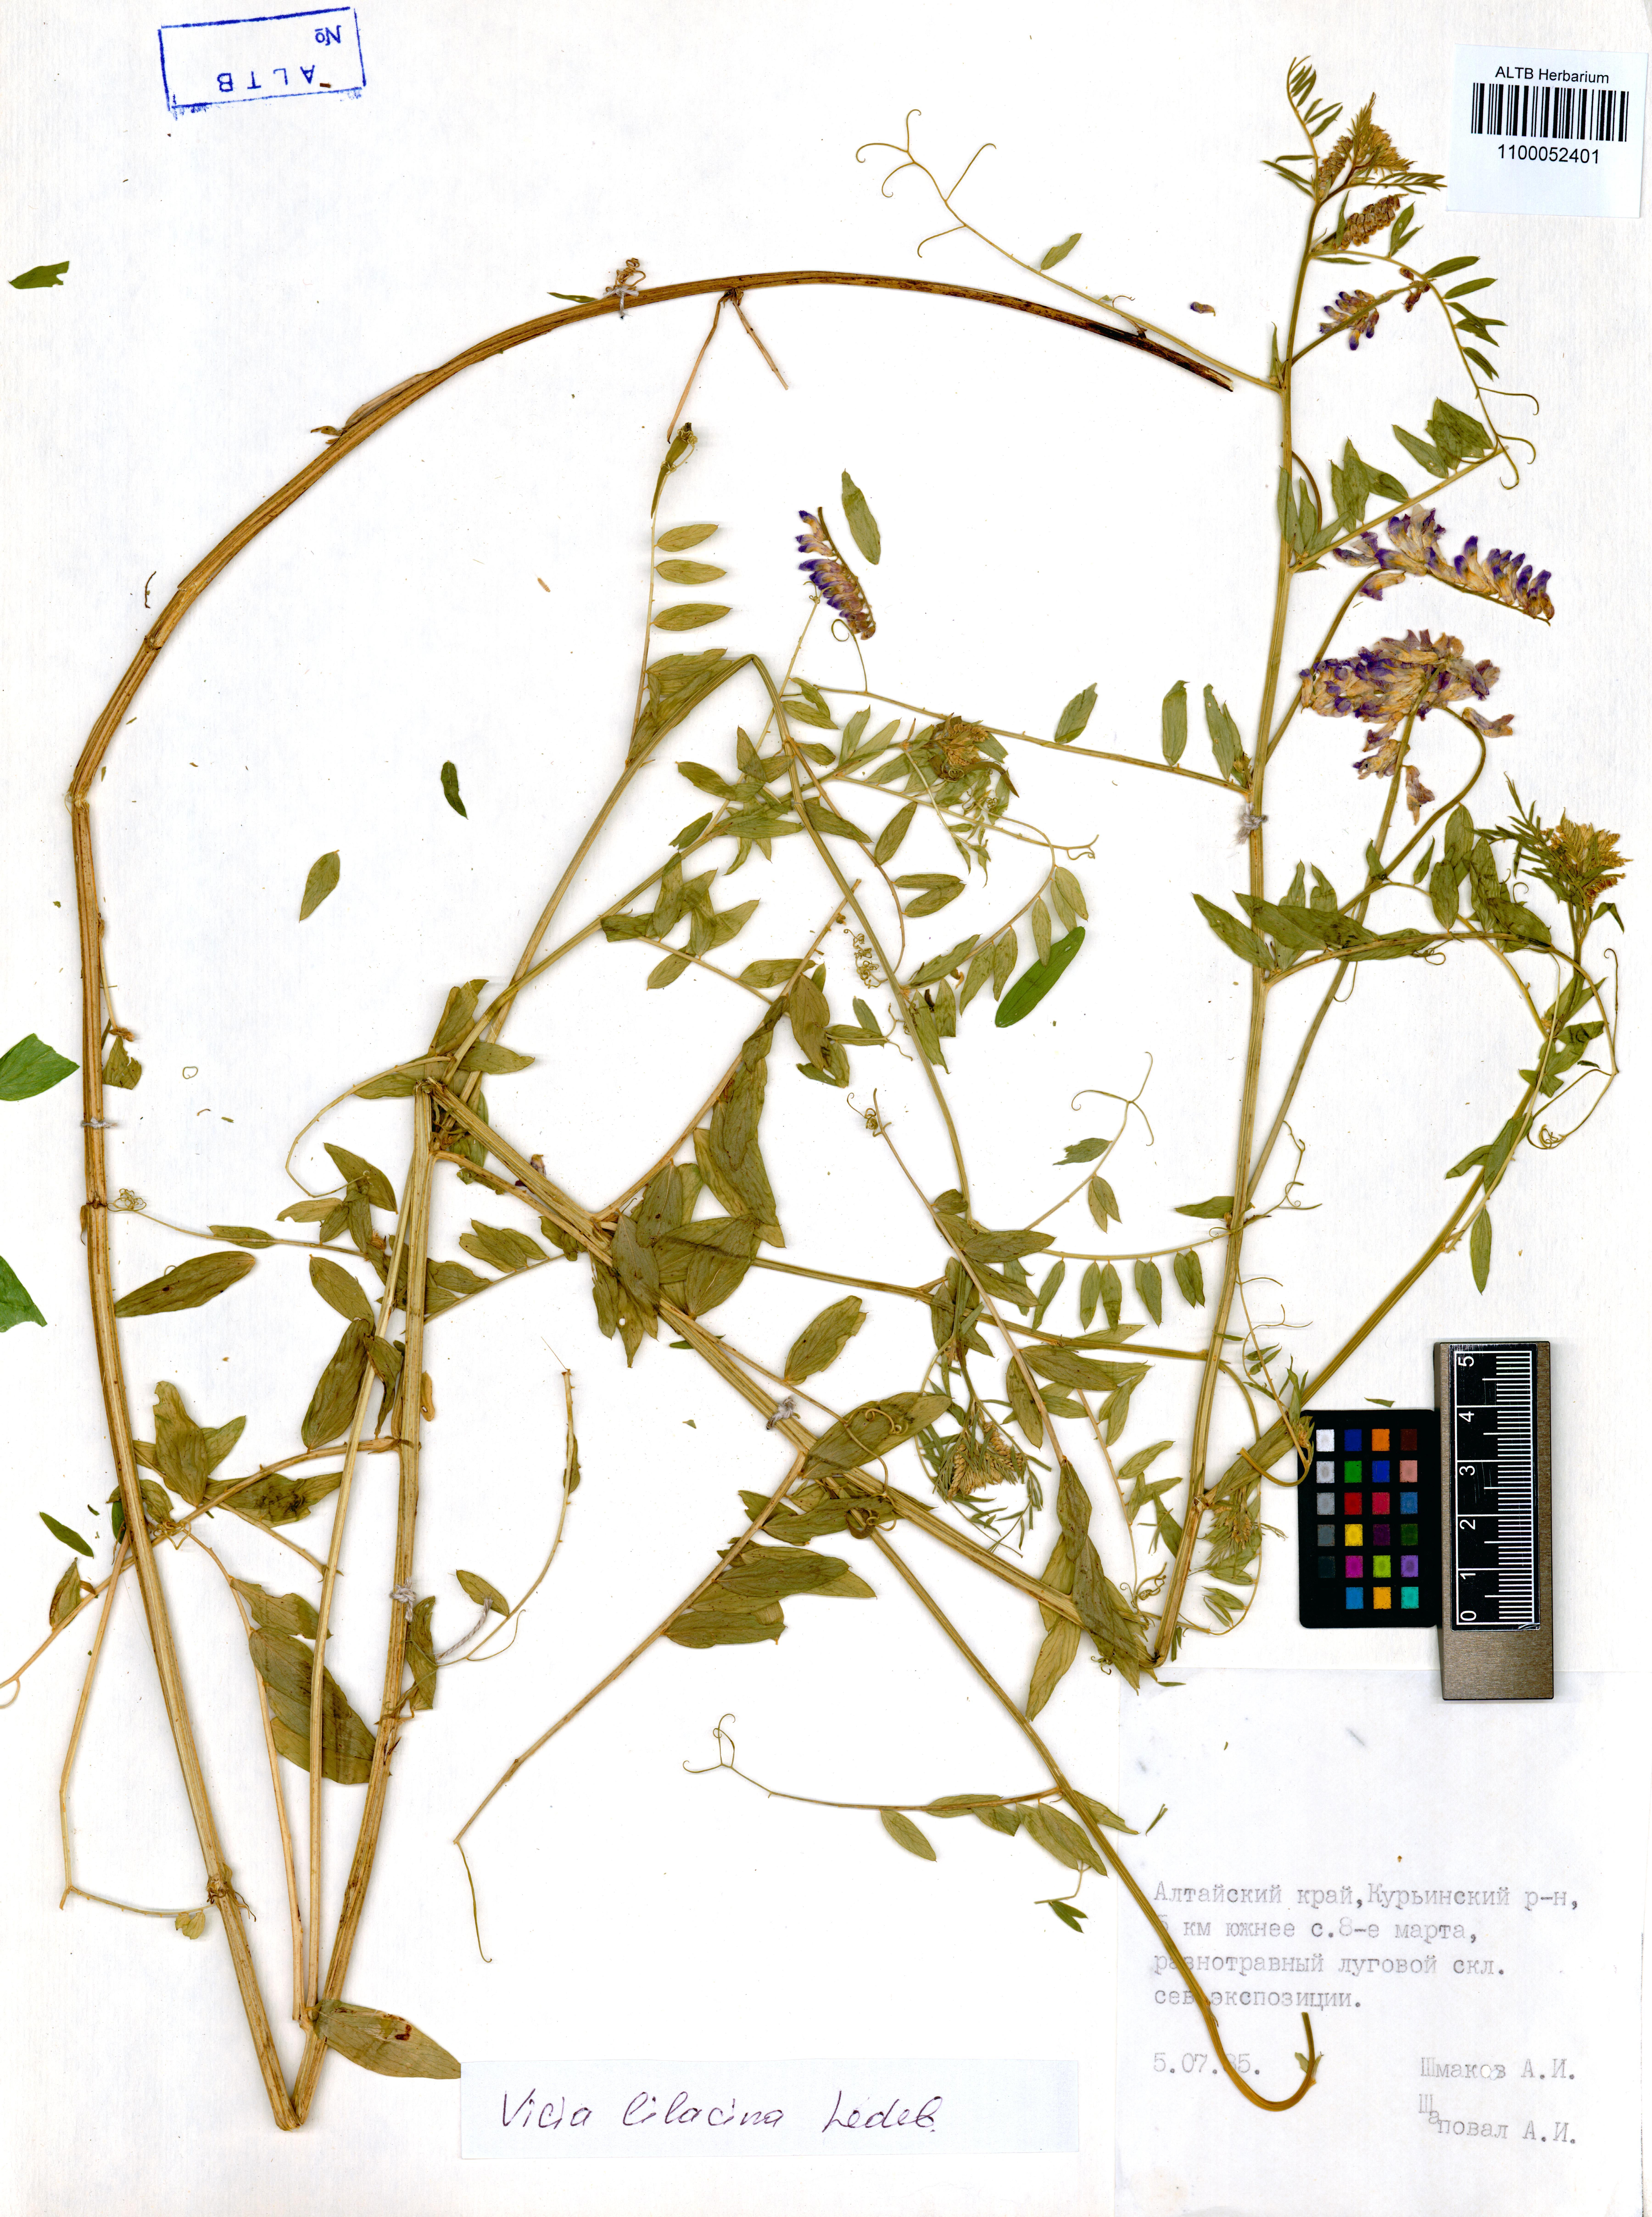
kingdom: Plantae
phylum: Tracheophyta
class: Magnoliopsida
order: Fabales
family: Fabaceae
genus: Vicia
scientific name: Vicia lilacina
